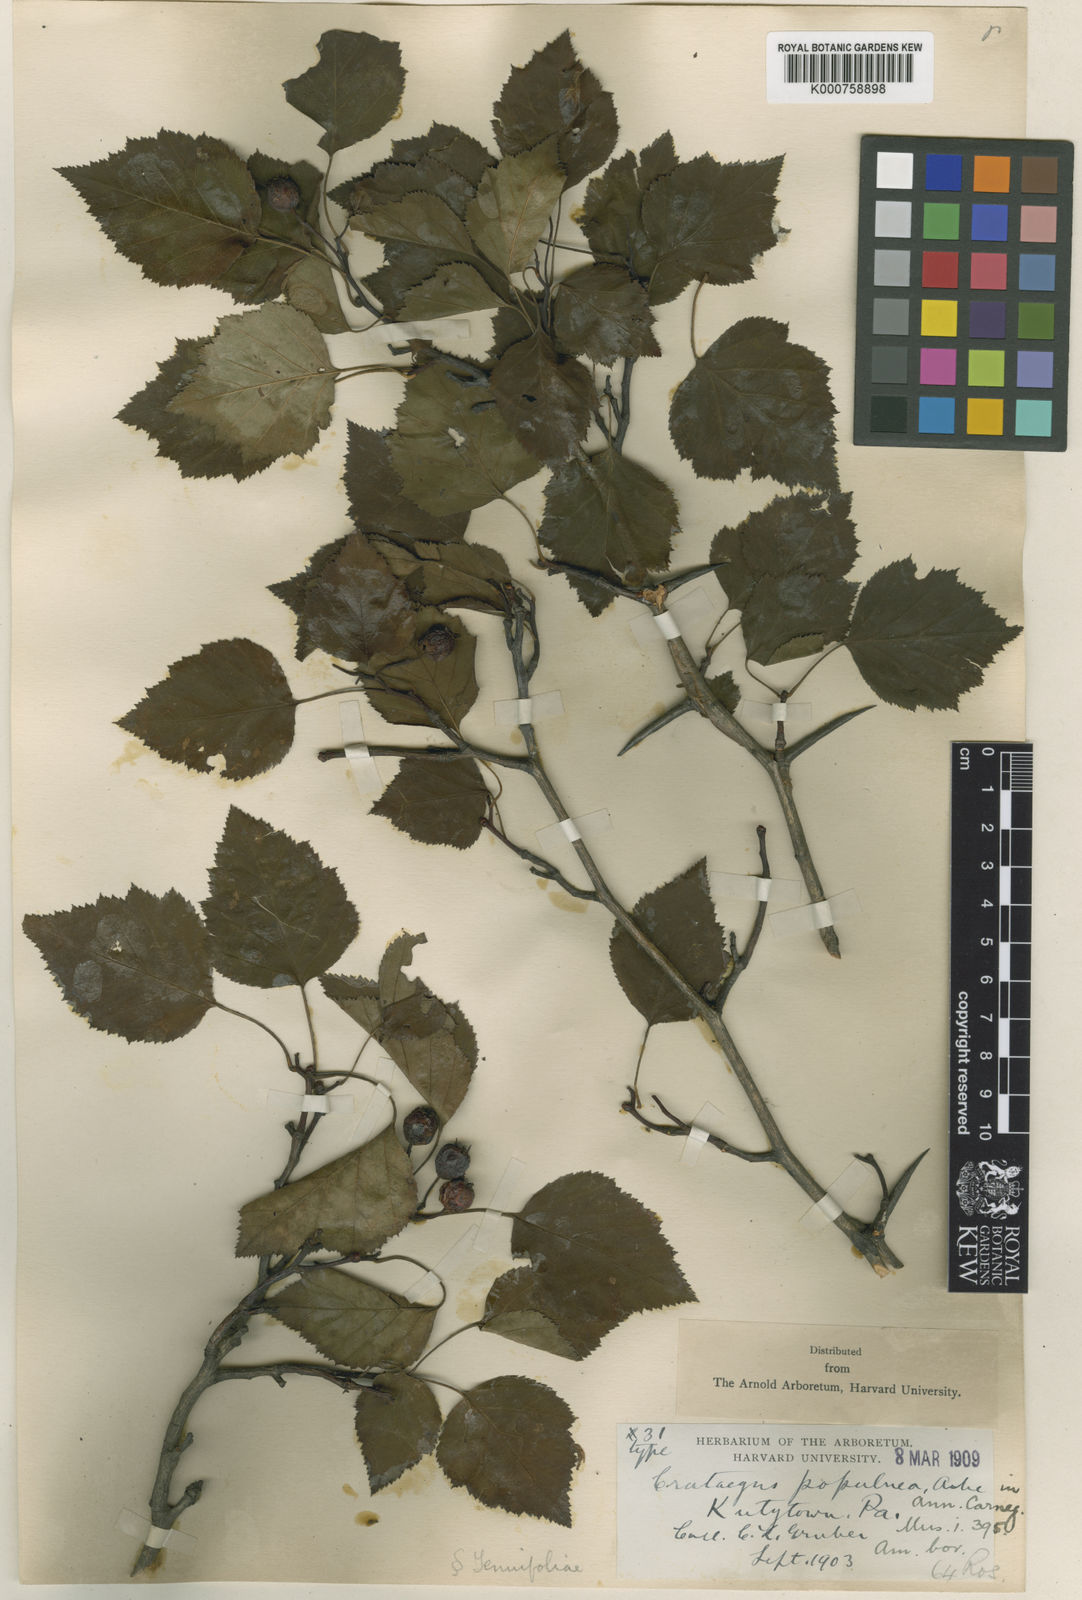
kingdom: Plantae
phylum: Tracheophyta
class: Magnoliopsida
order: Rosales
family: Rosaceae
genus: Crataegus
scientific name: Crataegus populnea
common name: Adorned hawthorn
